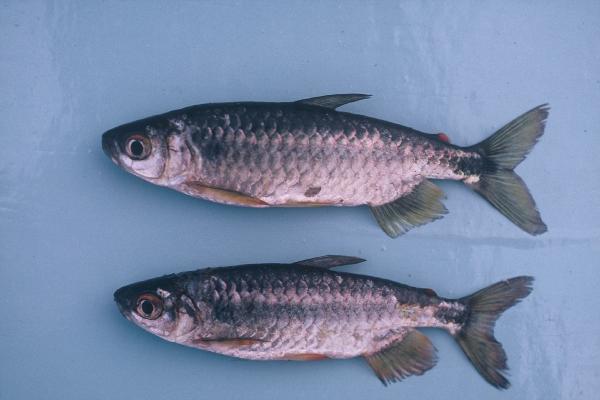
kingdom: Animalia
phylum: Chordata
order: Characiformes
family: Alestidae
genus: Brycinus
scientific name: Brycinus imberi
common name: Imberi
